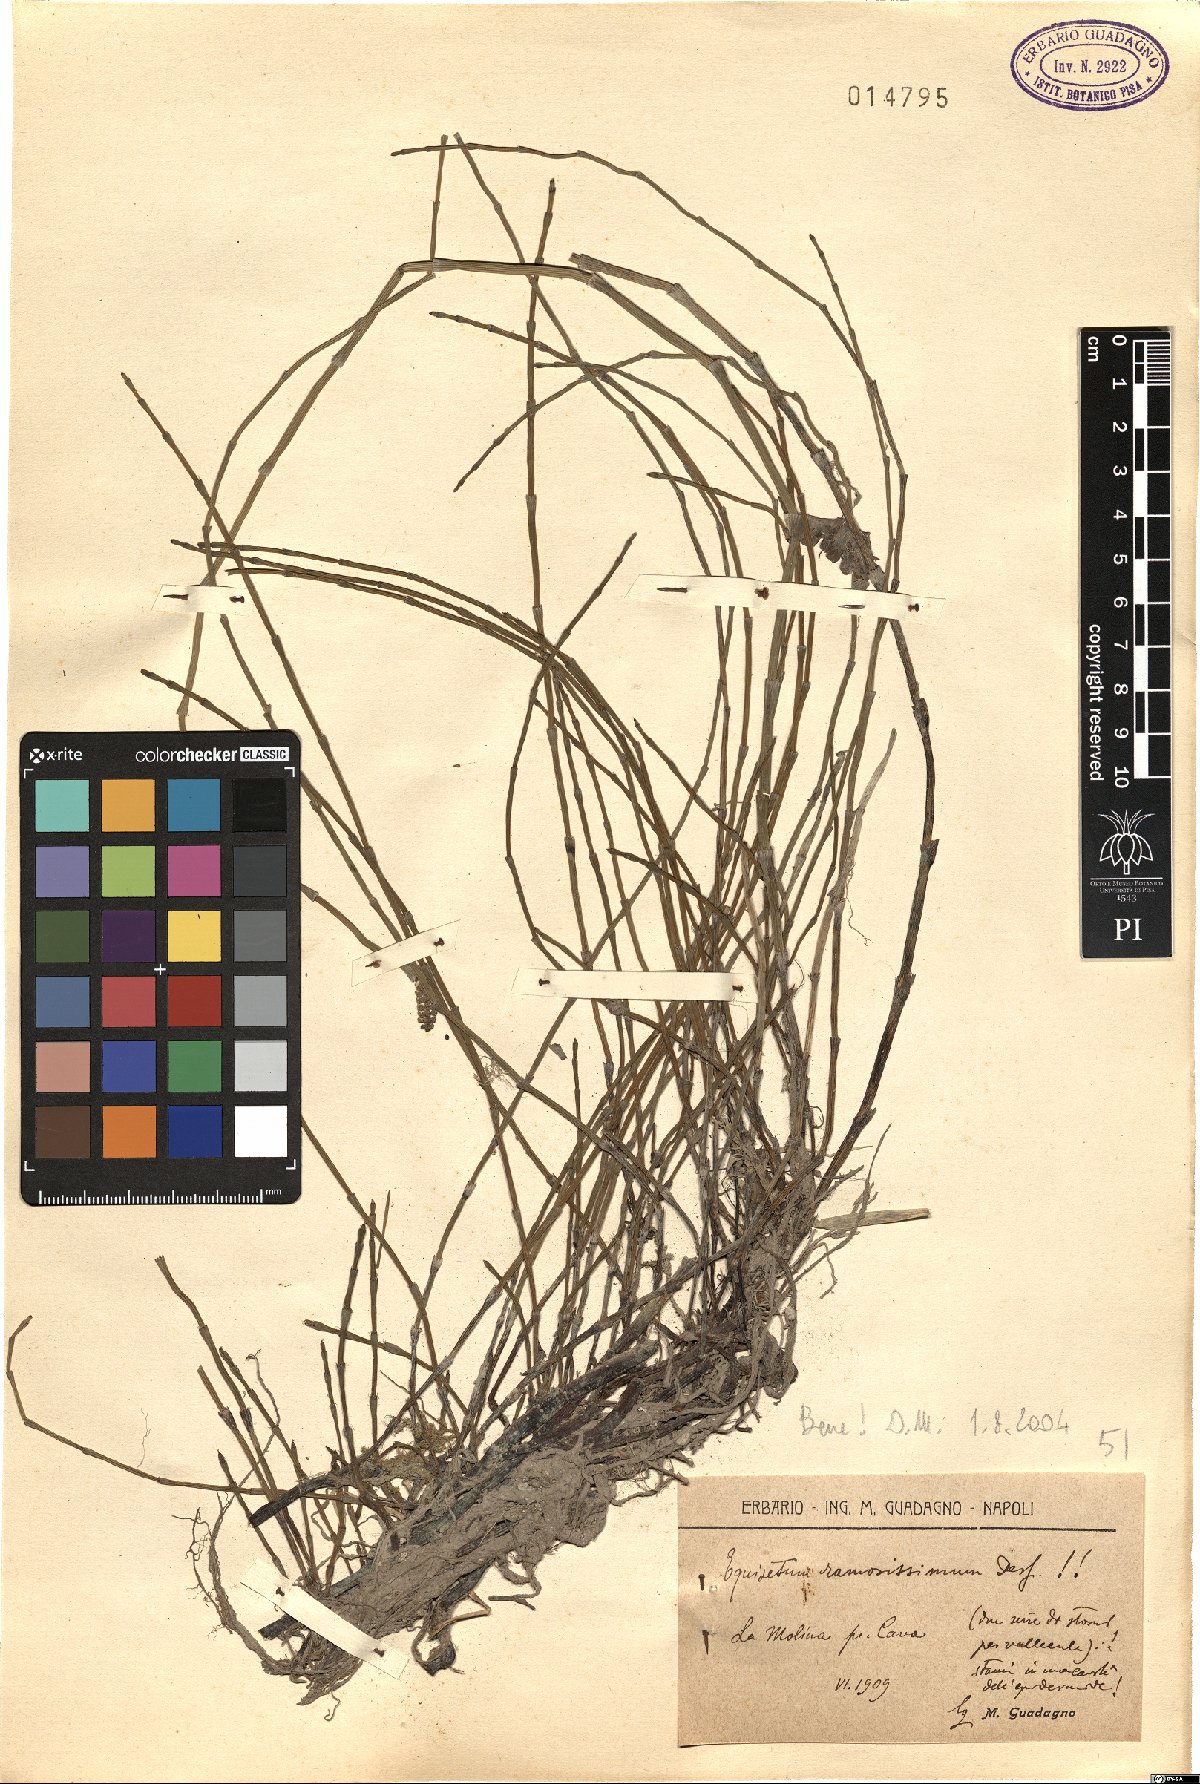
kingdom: Plantae
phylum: Tracheophyta
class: Polypodiopsida
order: Equisetales
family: Equisetaceae
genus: Equisetum
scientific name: Equisetum ramosissimum
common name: Branched horsetail
